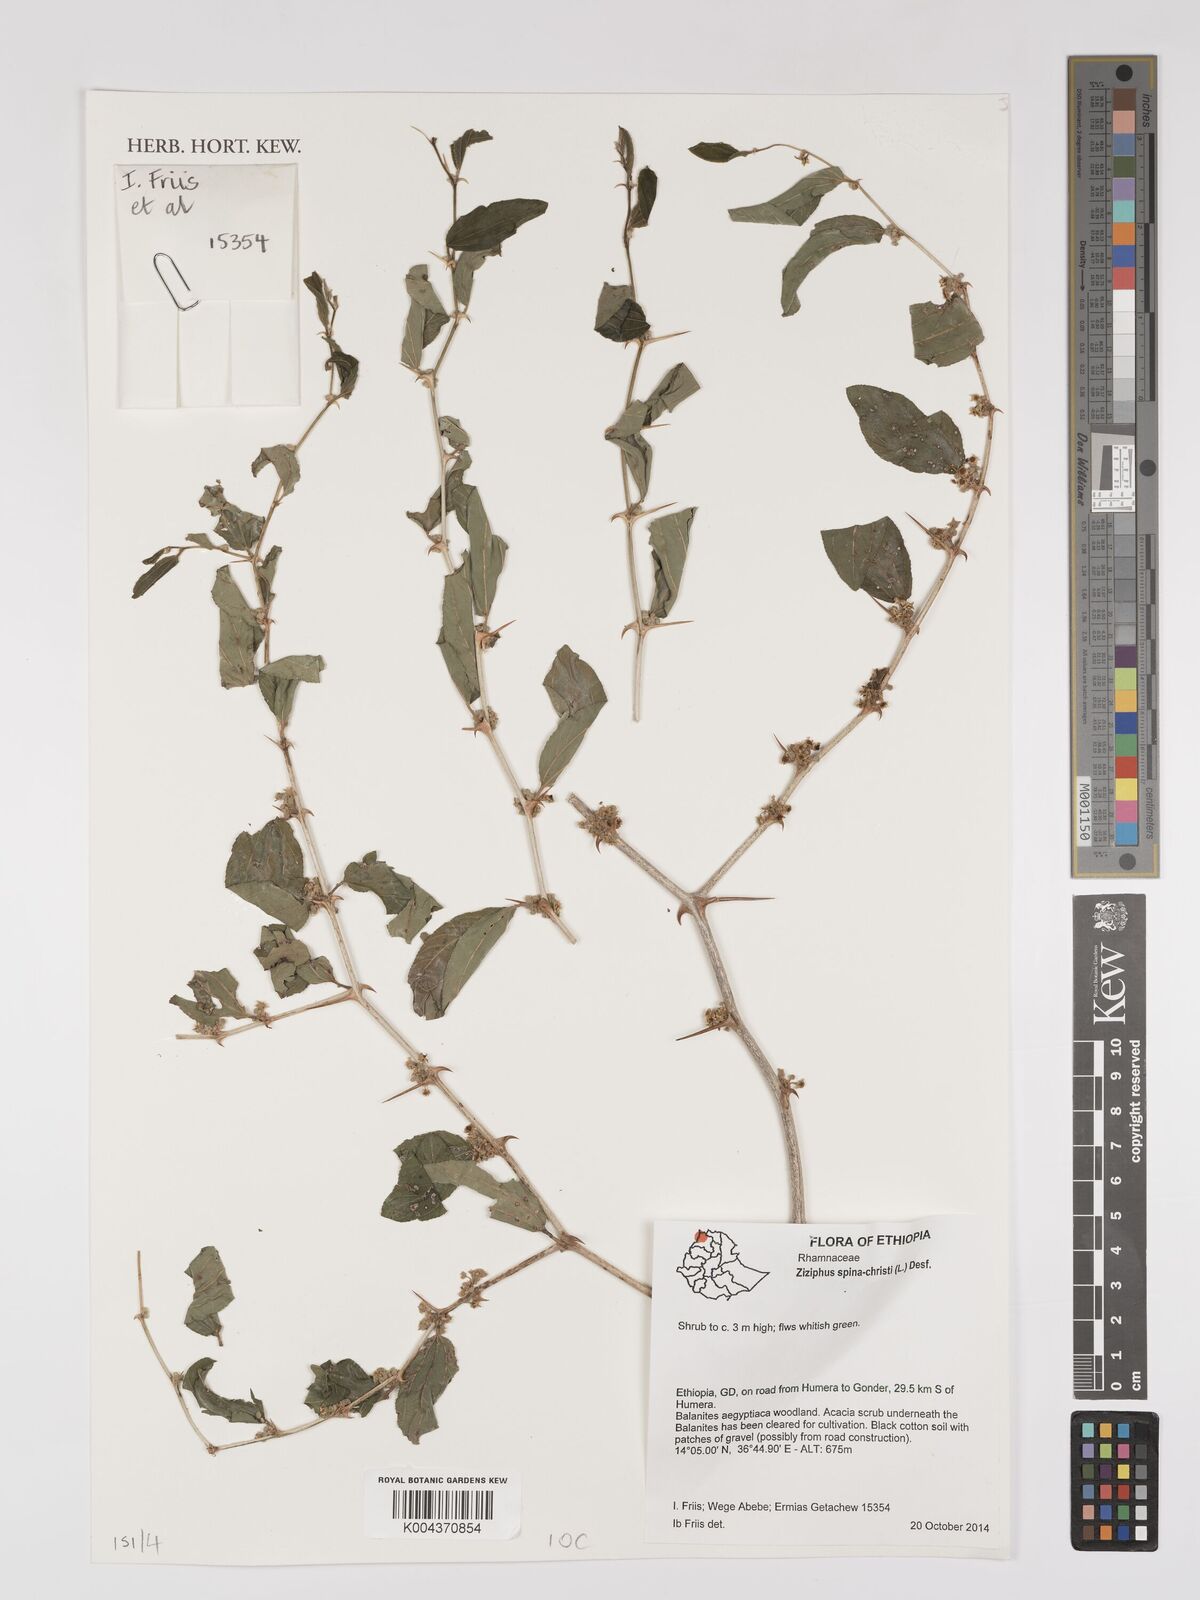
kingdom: Plantae
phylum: Tracheophyta
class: Magnoliopsida
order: Rosales
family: Rhamnaceae
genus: Ziziphus
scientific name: Ziziphus spina-christi
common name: Syrian christ-thorn
